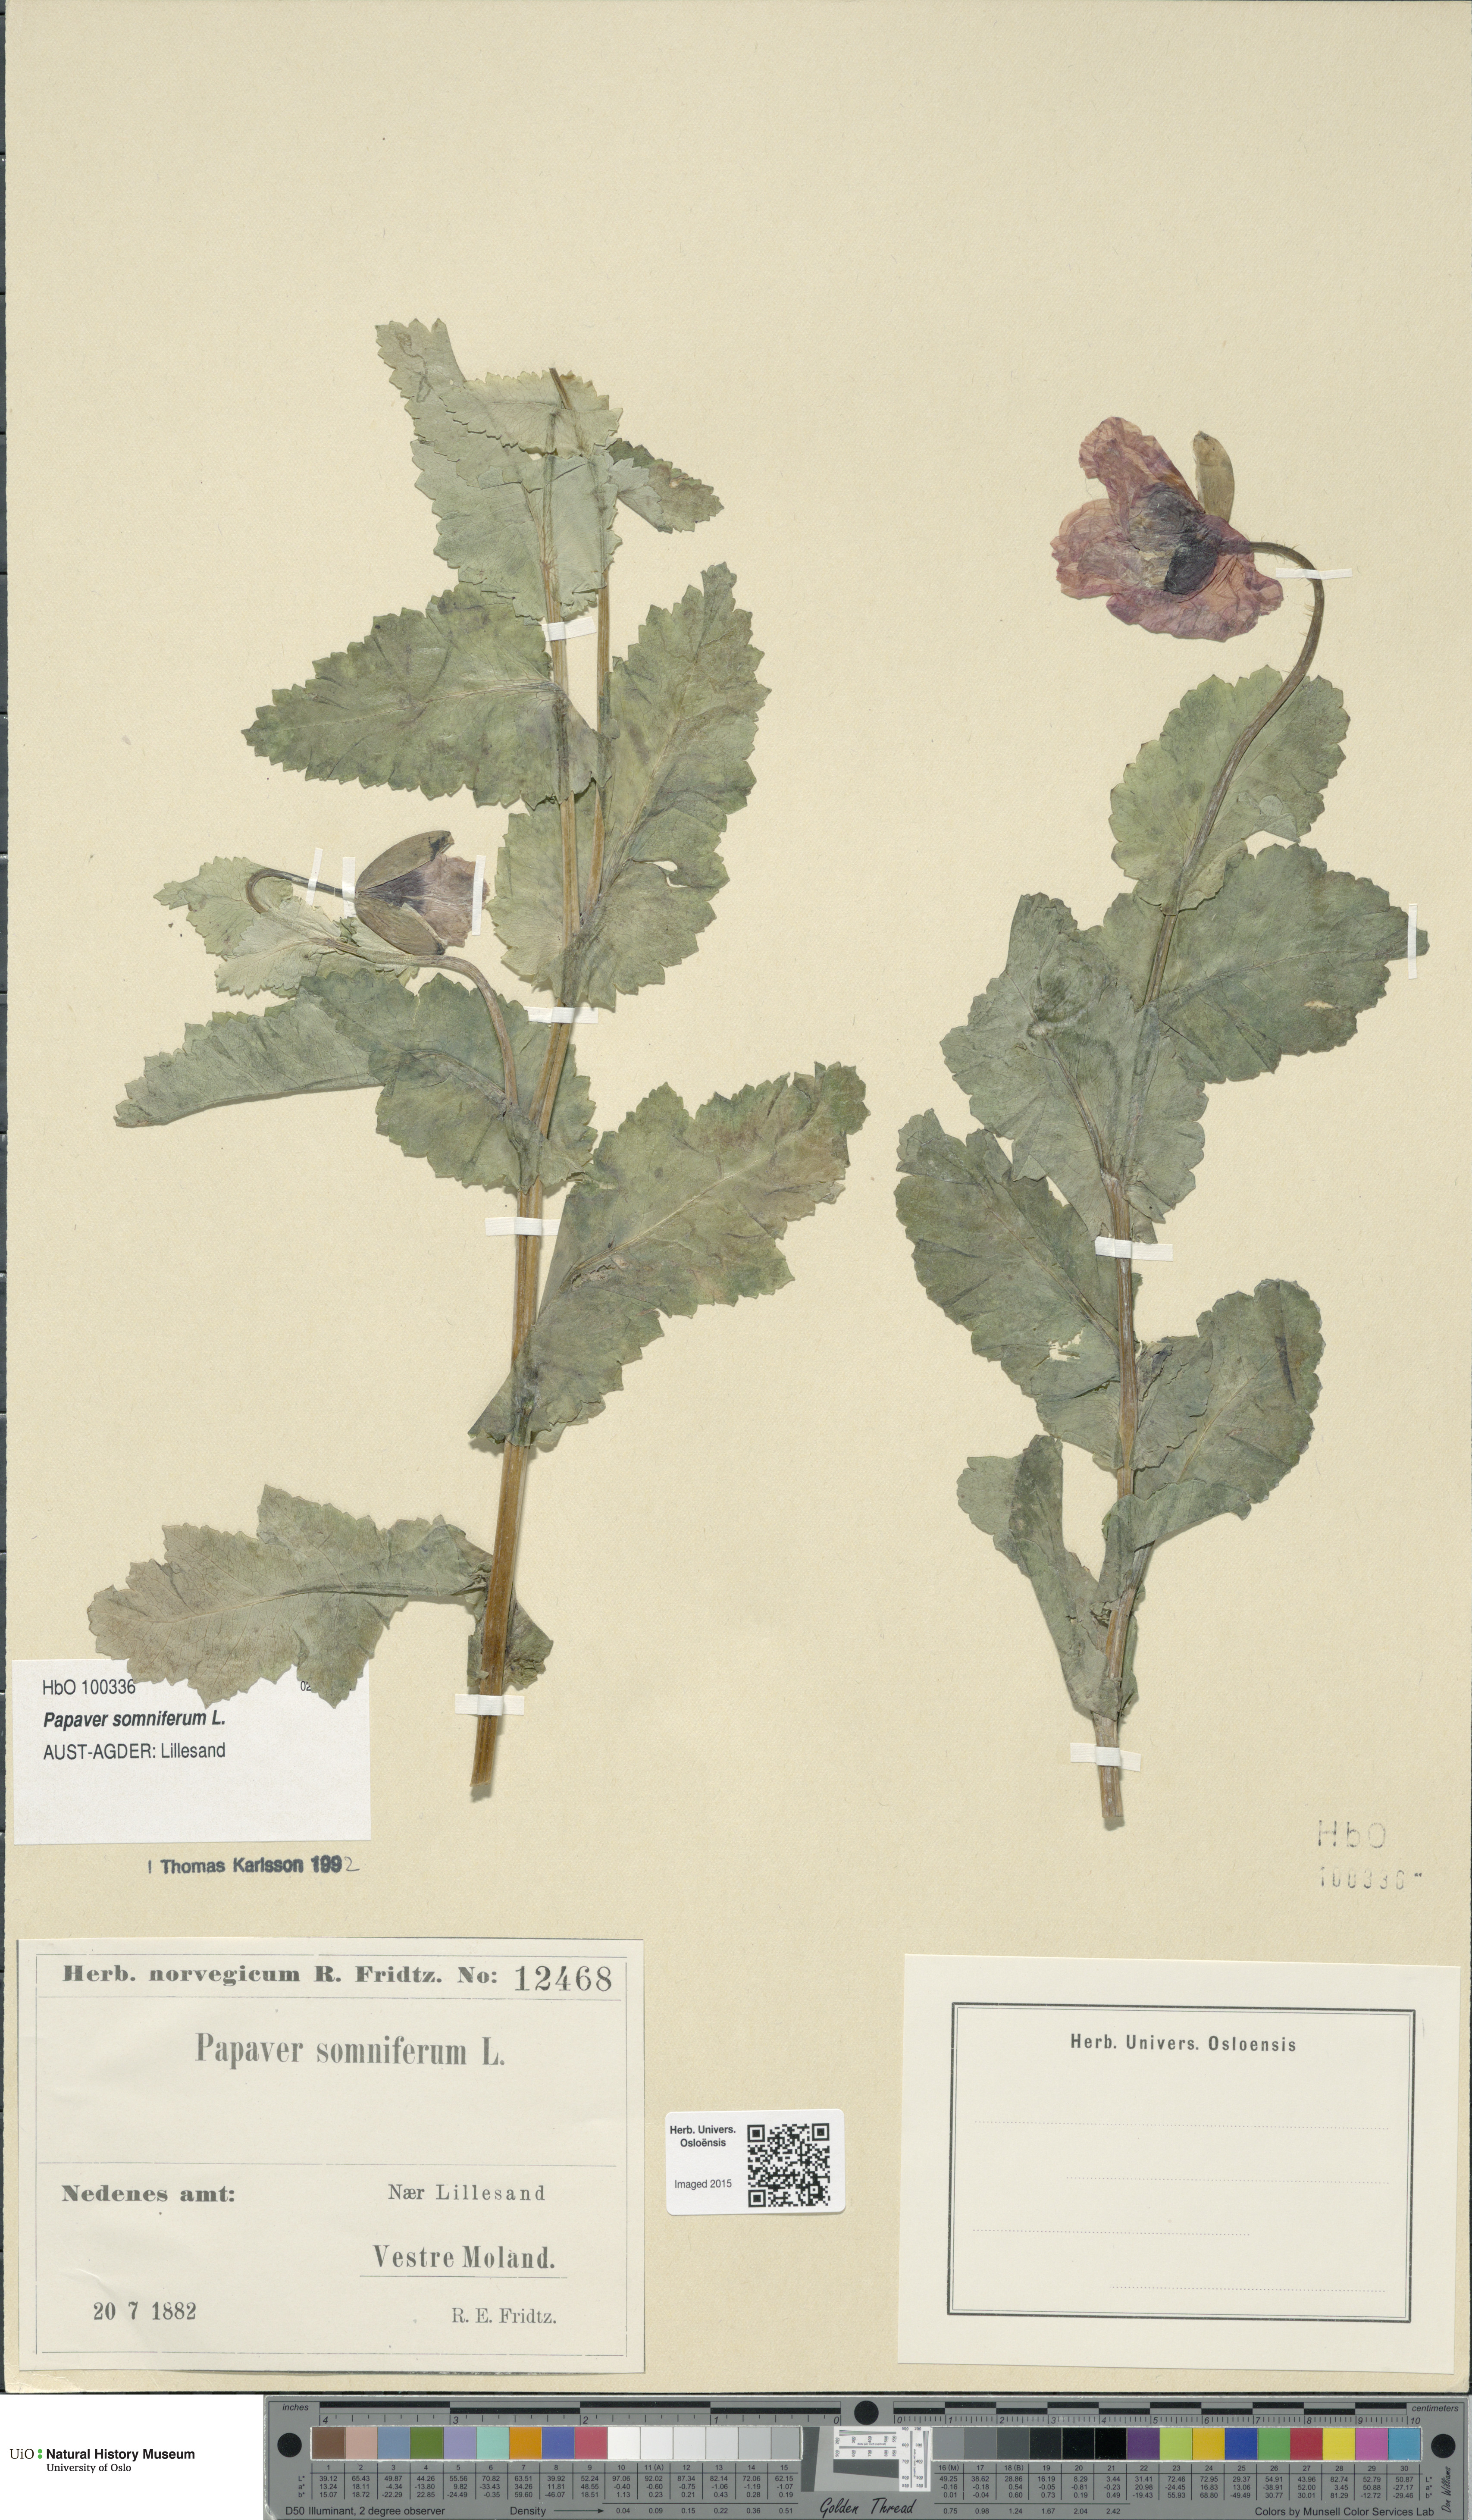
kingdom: Plantae
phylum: Tracheophyta
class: Magnoliopsida
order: Ranunculales
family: Papaveraceae
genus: Papaver
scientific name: Papaver somniferum
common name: Opium poppy
